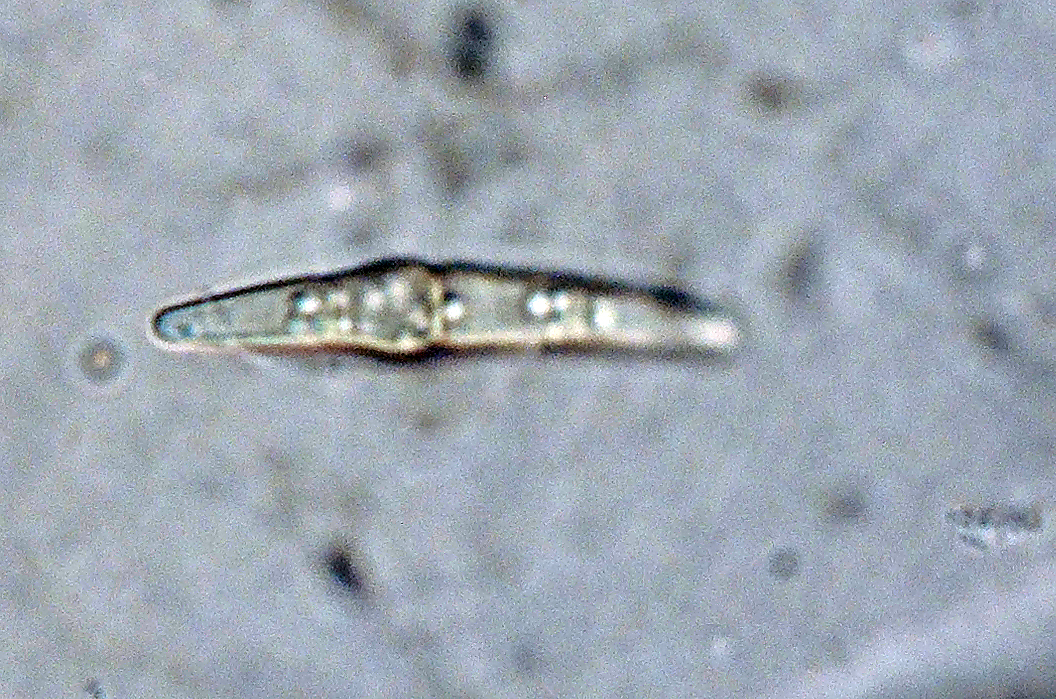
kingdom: Fungi
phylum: Ascomycota
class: Dothideomycetes
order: Pleosporales
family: Leptosphaeriaceae
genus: Leptosphaeria
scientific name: Leptosphaeria macrocapsa
